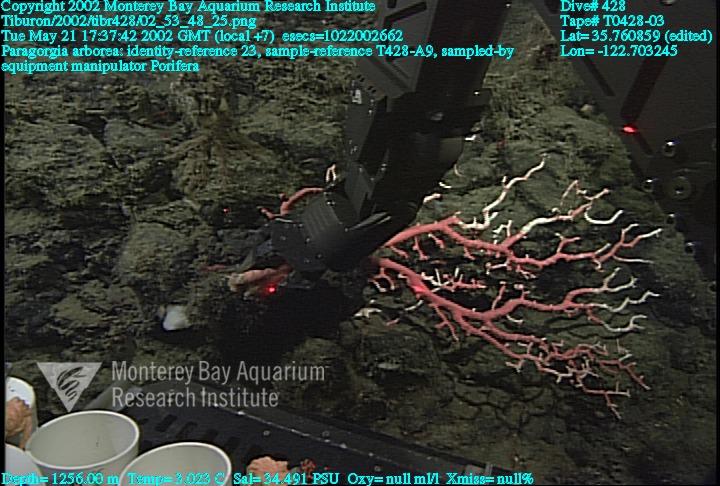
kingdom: Animalia
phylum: Porifera
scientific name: Porifera
